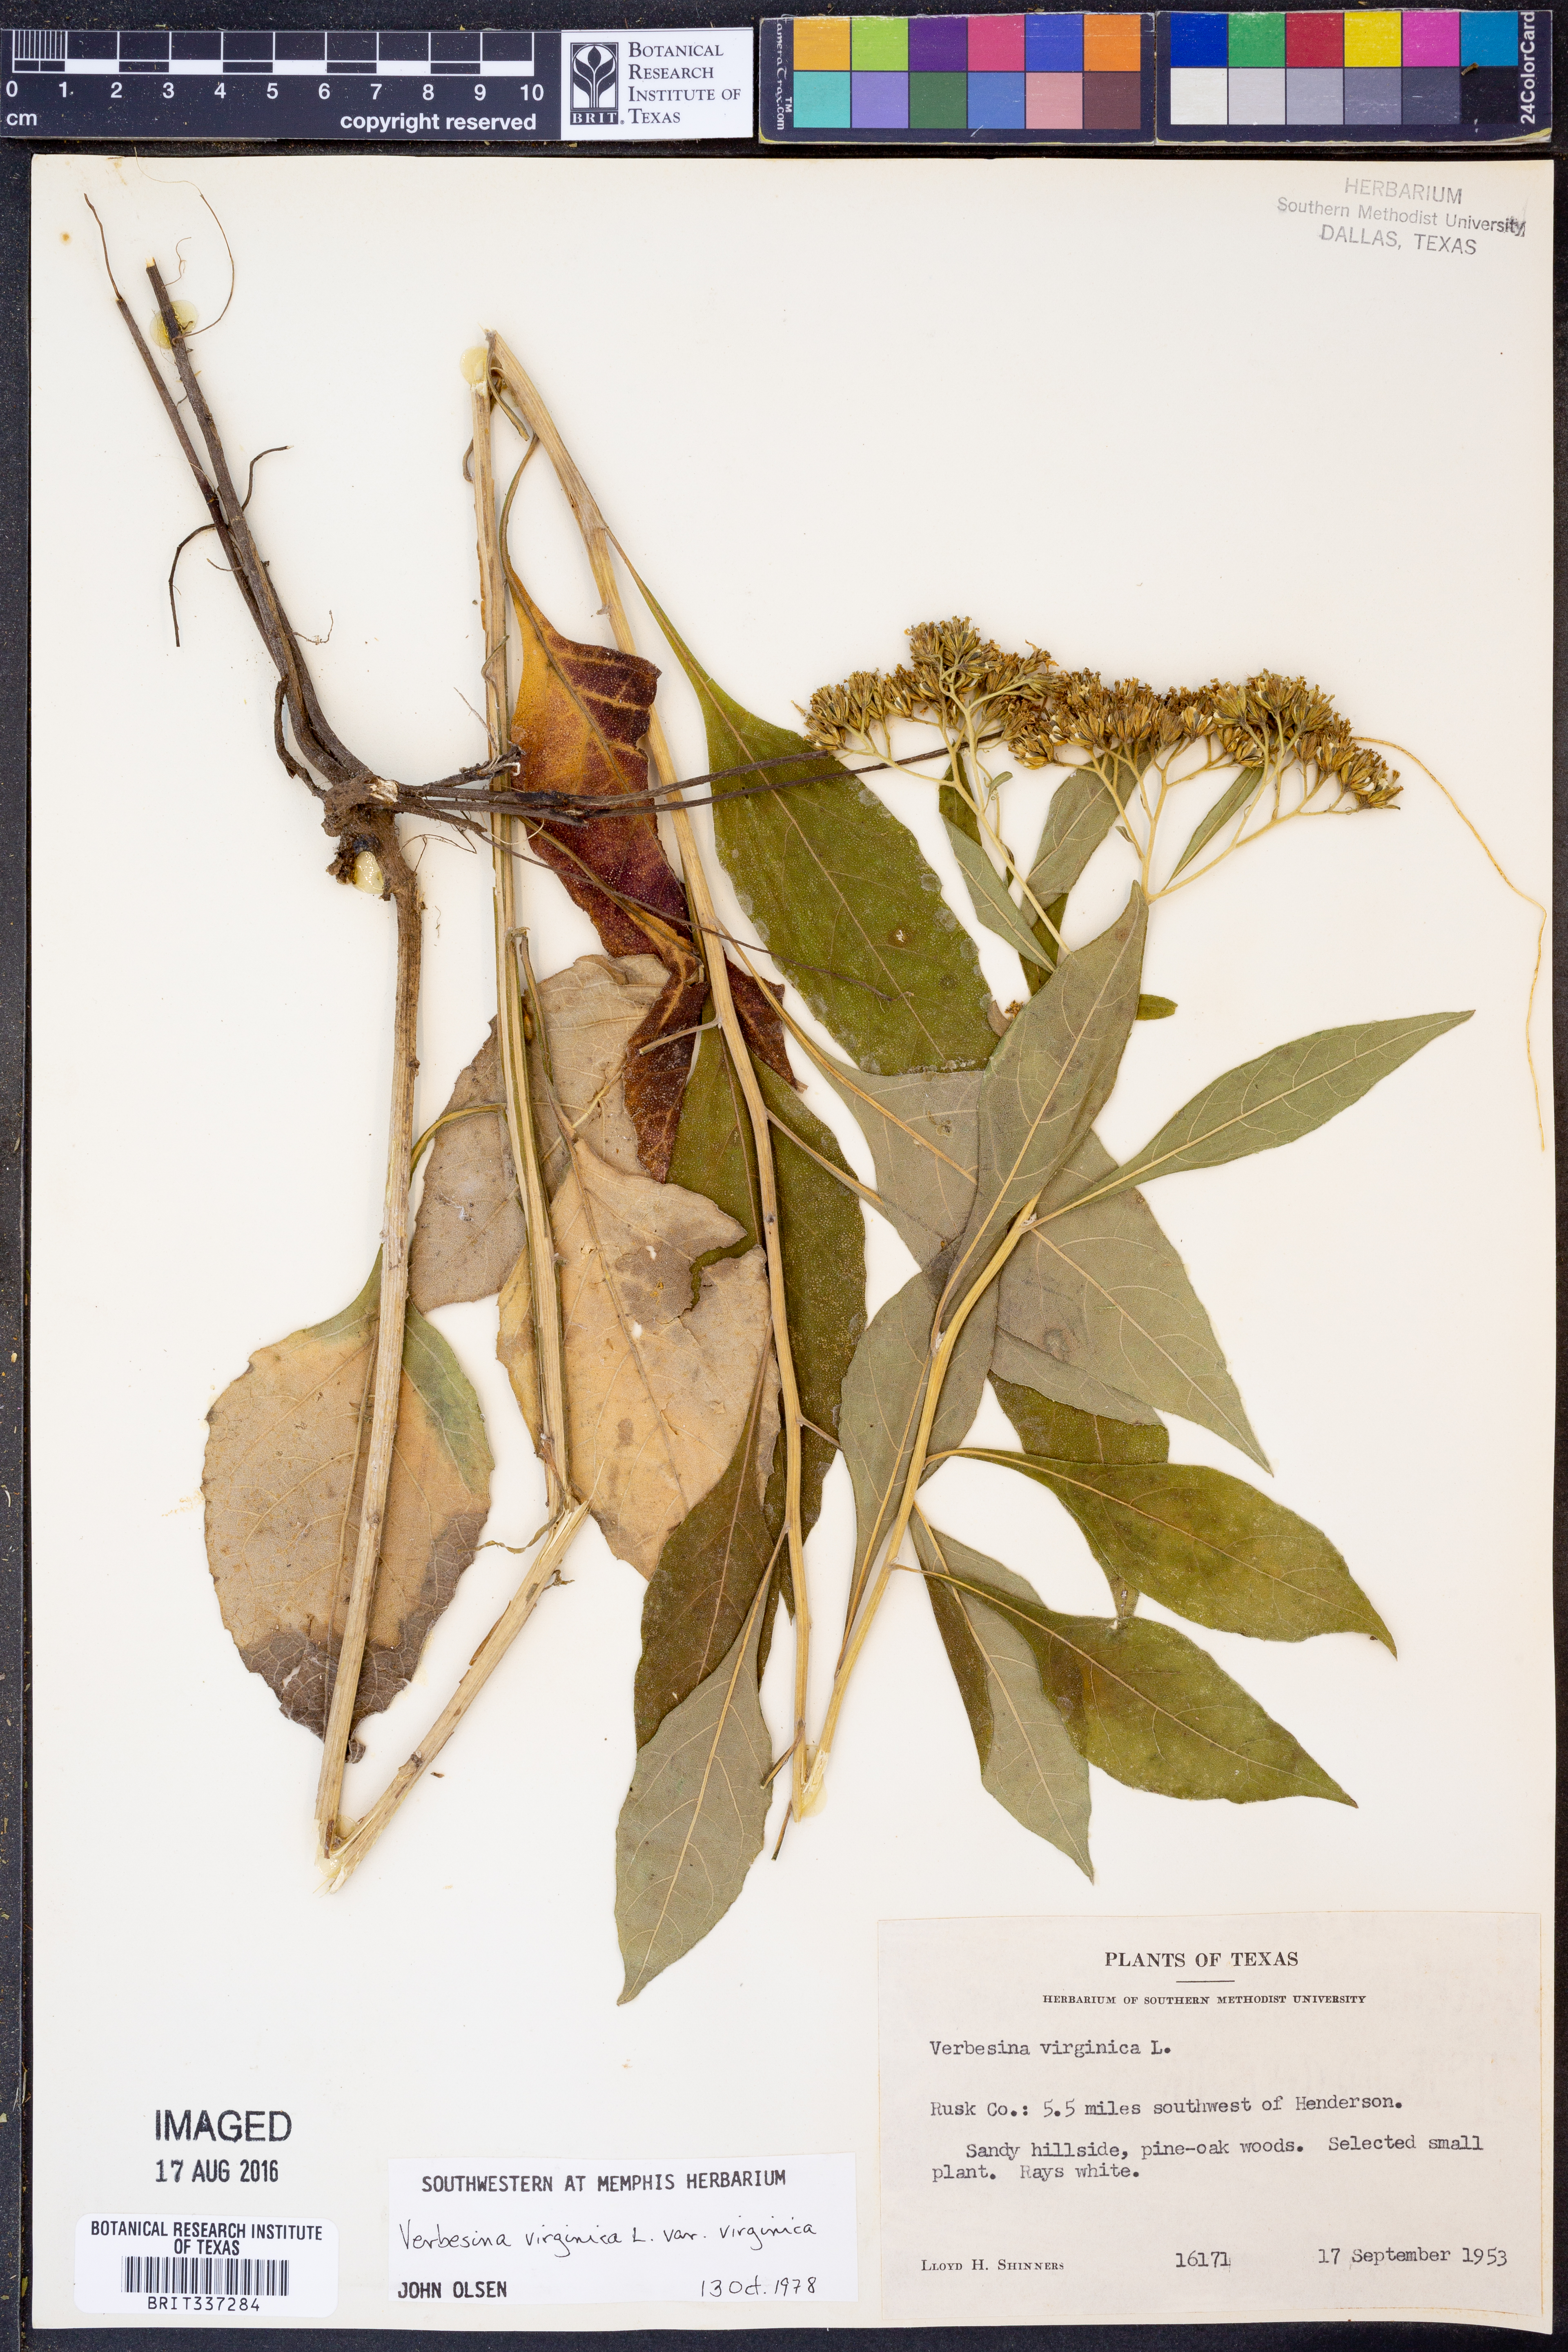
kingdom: Plantae
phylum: Tracheophyta
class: Magnoliopsida
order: Asterales
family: Asteraceae
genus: Verbesina
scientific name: Verbesina virginica
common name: Frostweed
